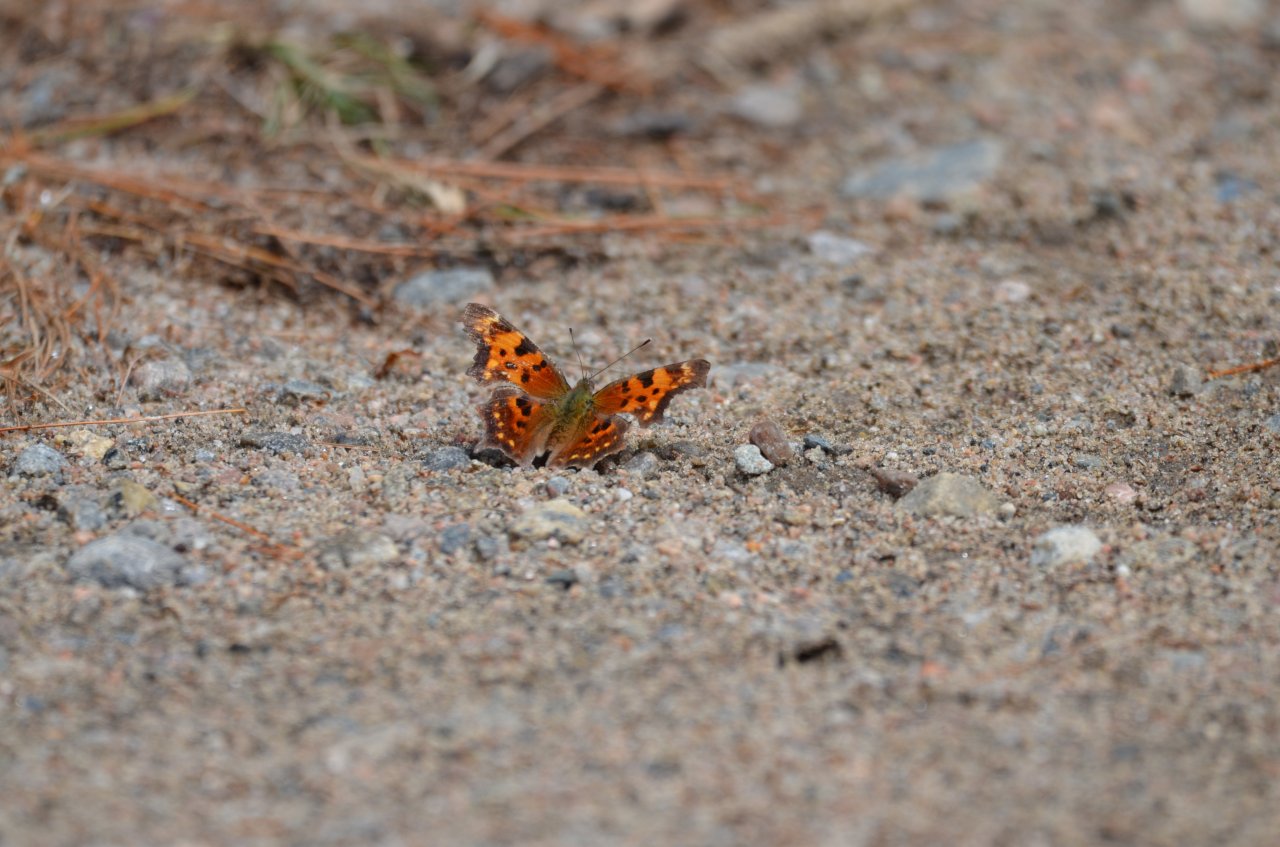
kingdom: Animalia
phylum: Arthropoda
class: Insecta
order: Lepidoptera
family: Nymphalidae
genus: Polygonia
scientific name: Polygonia faunus
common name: Green Comma
